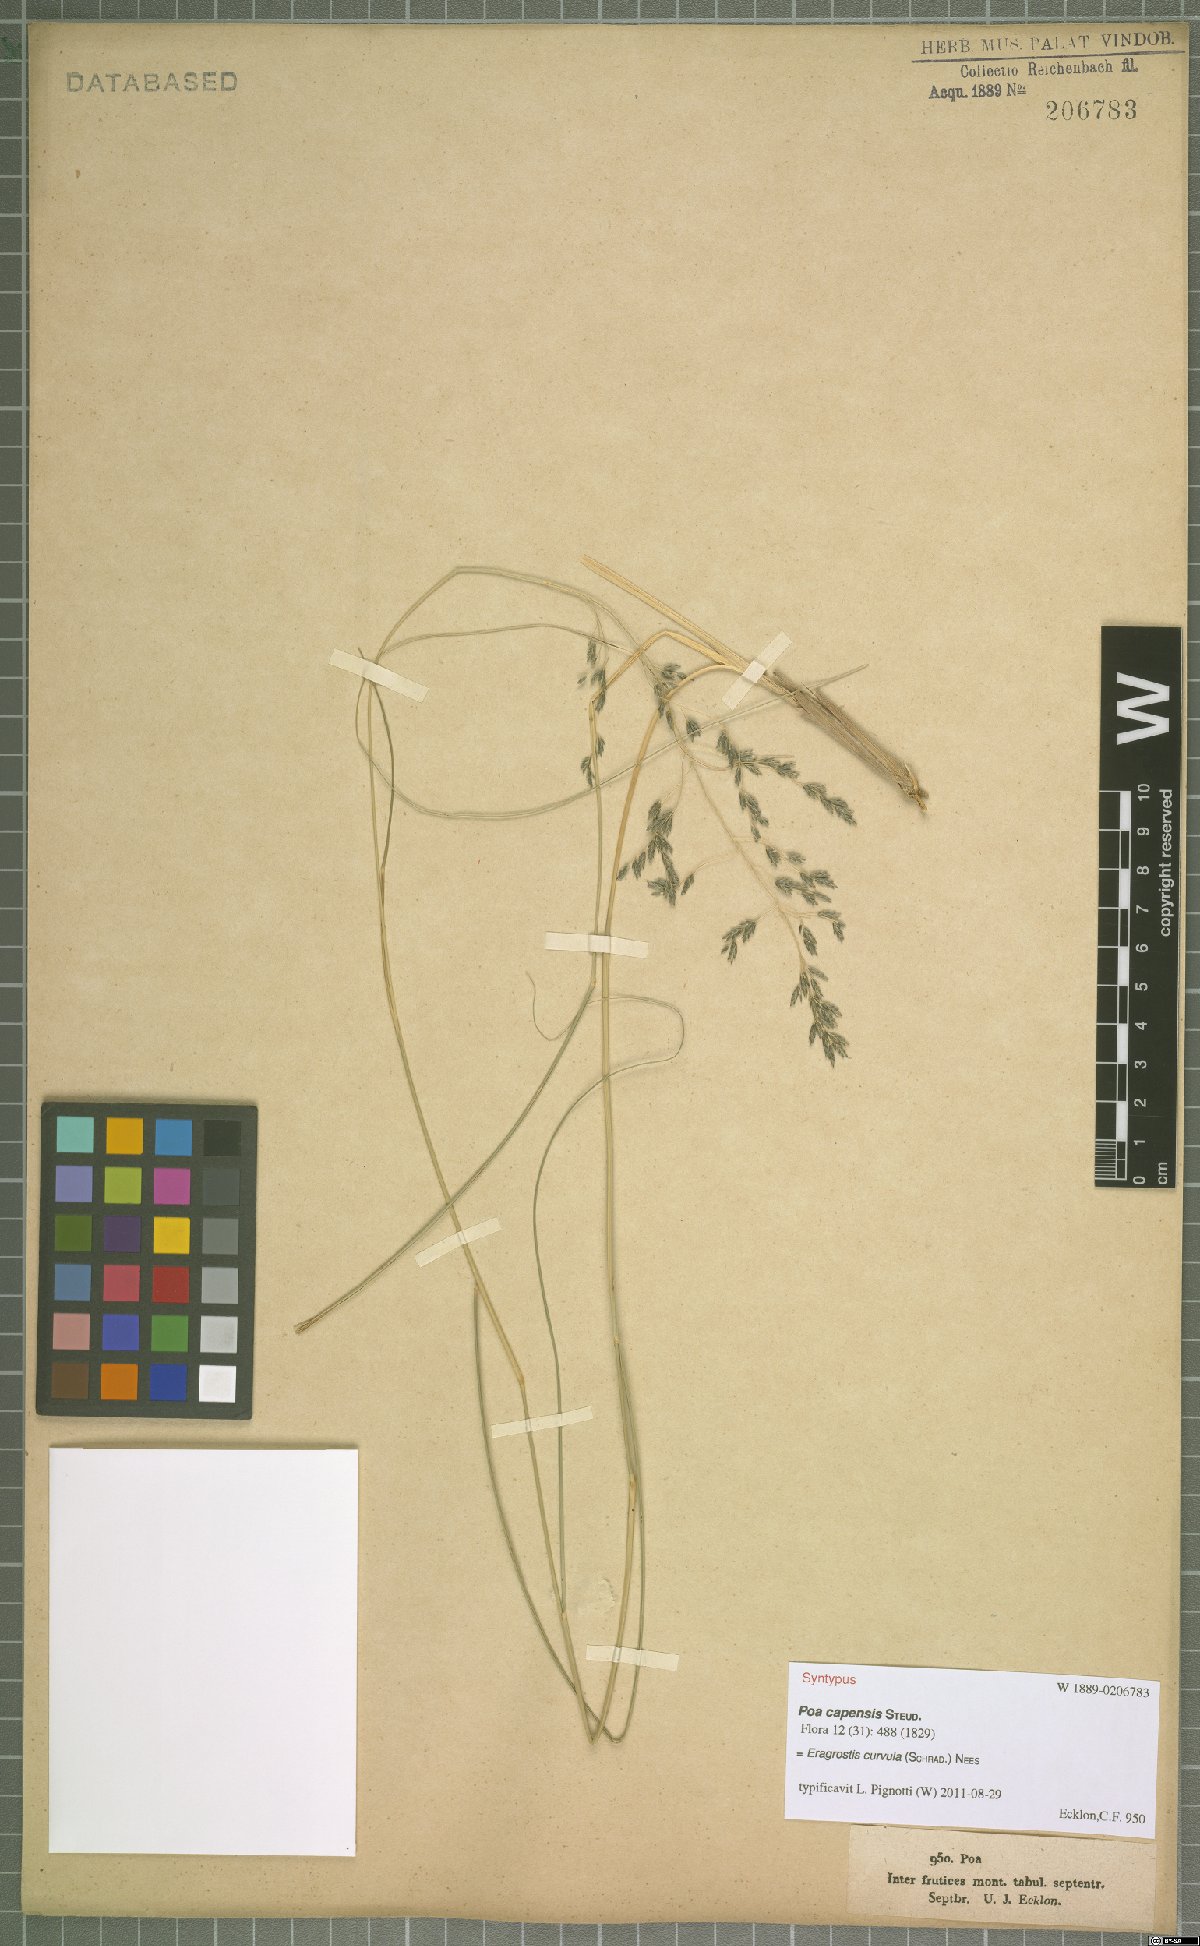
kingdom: Plantae
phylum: Tracheophyta
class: Liliopsida
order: Poales
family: Poaceae
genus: Eragrostis
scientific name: Eragrostis curvula
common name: African love-grass
